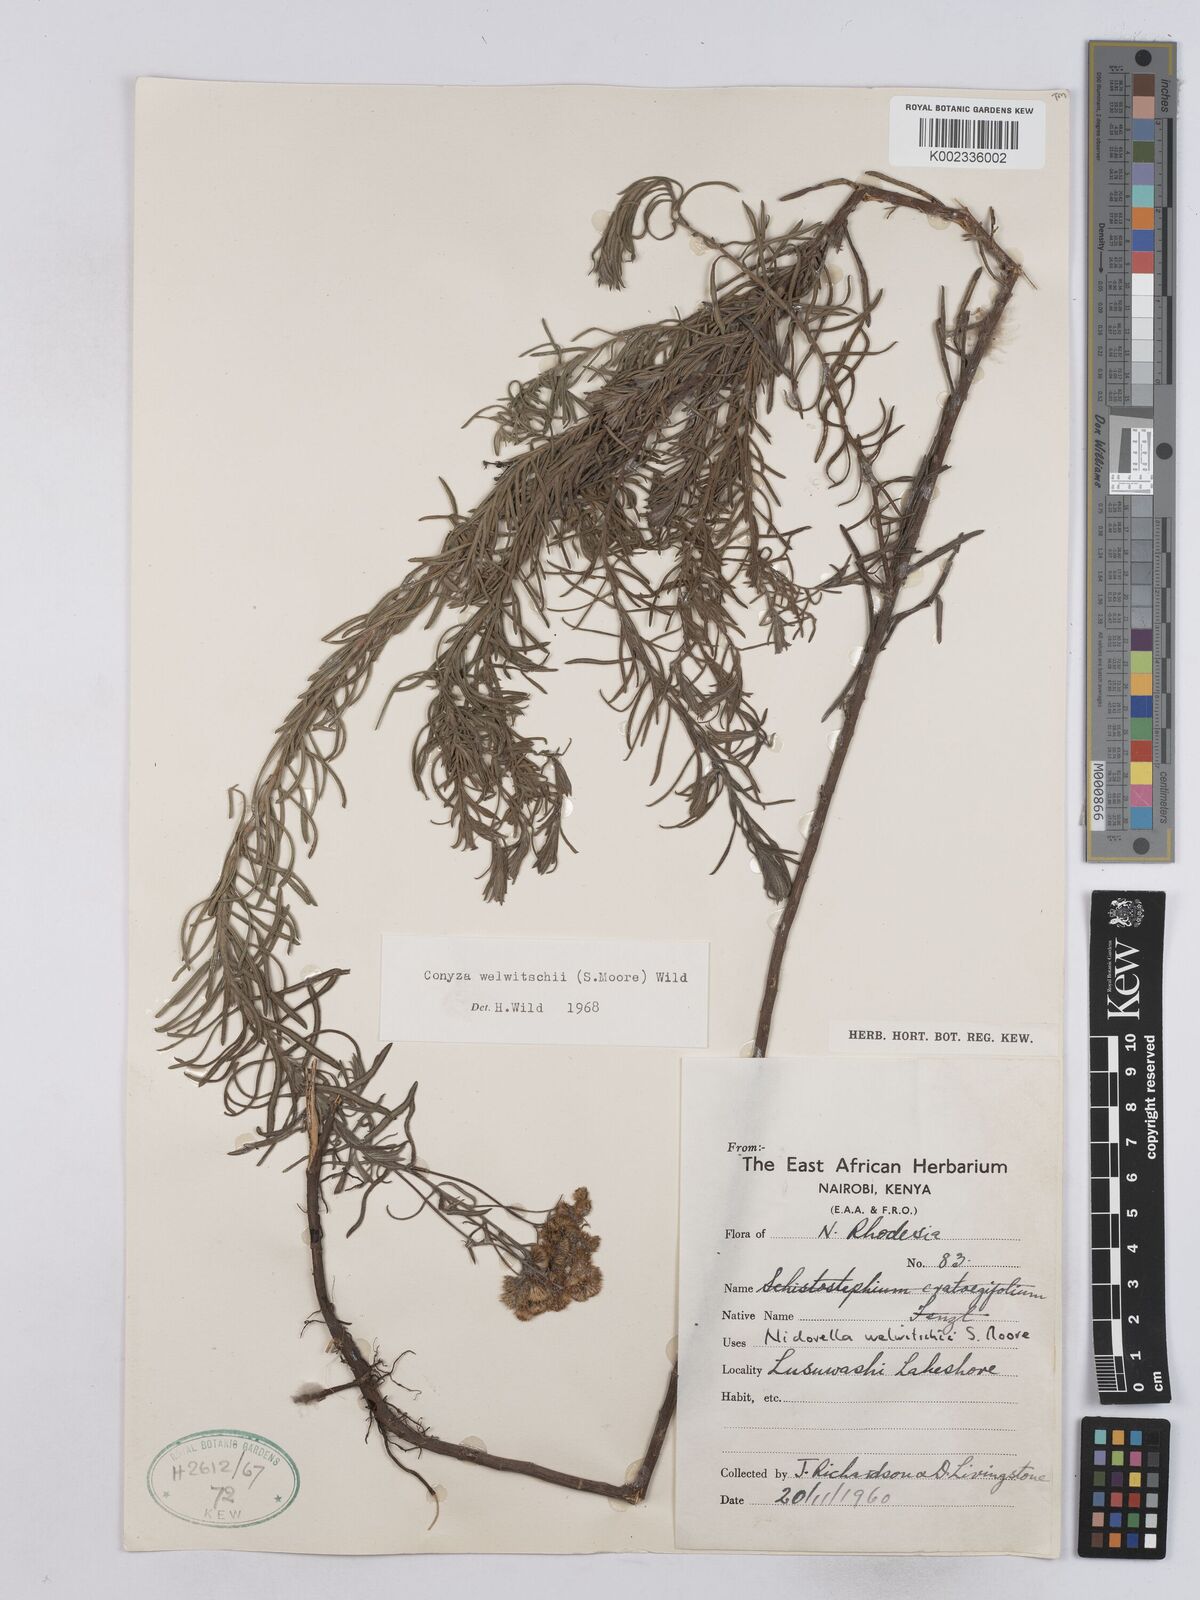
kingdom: Plantae
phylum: Tracheophyta
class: Magnoliopsida
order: Asterales
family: Asteraceae
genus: Nidorella
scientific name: Nidorella welwitschii
